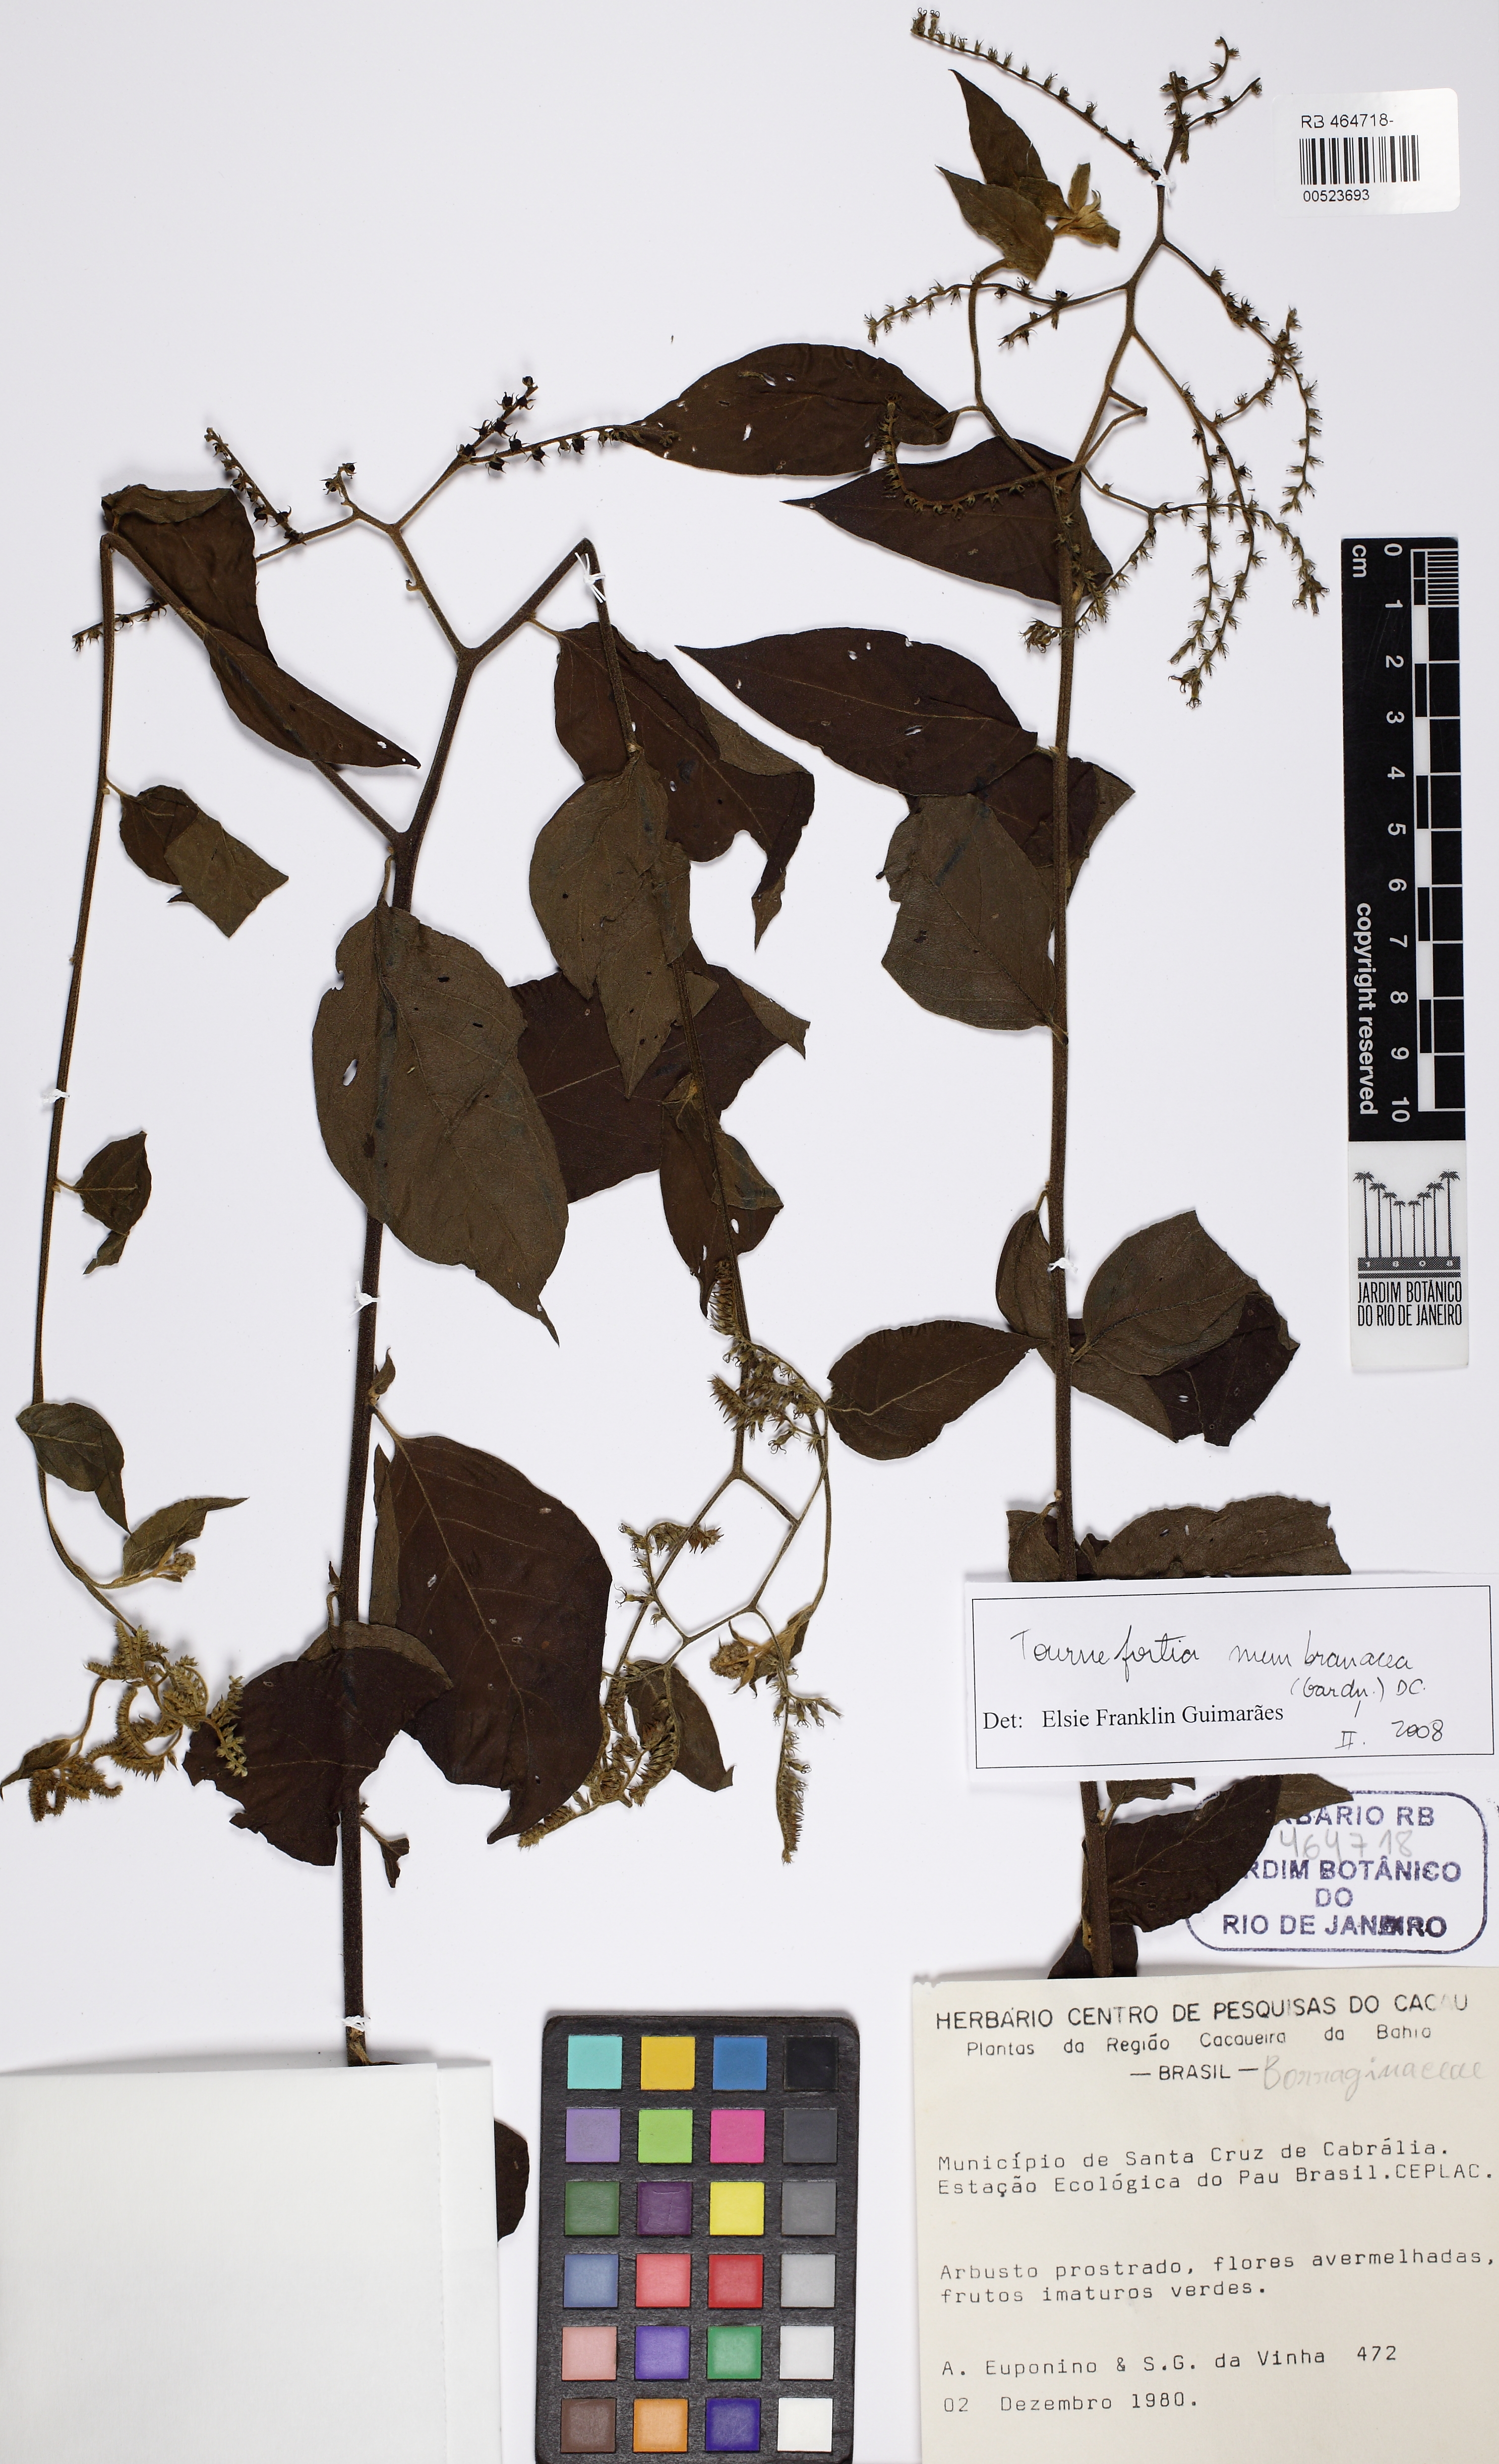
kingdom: Plantae
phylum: Tracheophyta
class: Magnoliopsida
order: Boraginales
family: Heliotropiaceae
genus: Myriopus
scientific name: Myriopus membranaceus
